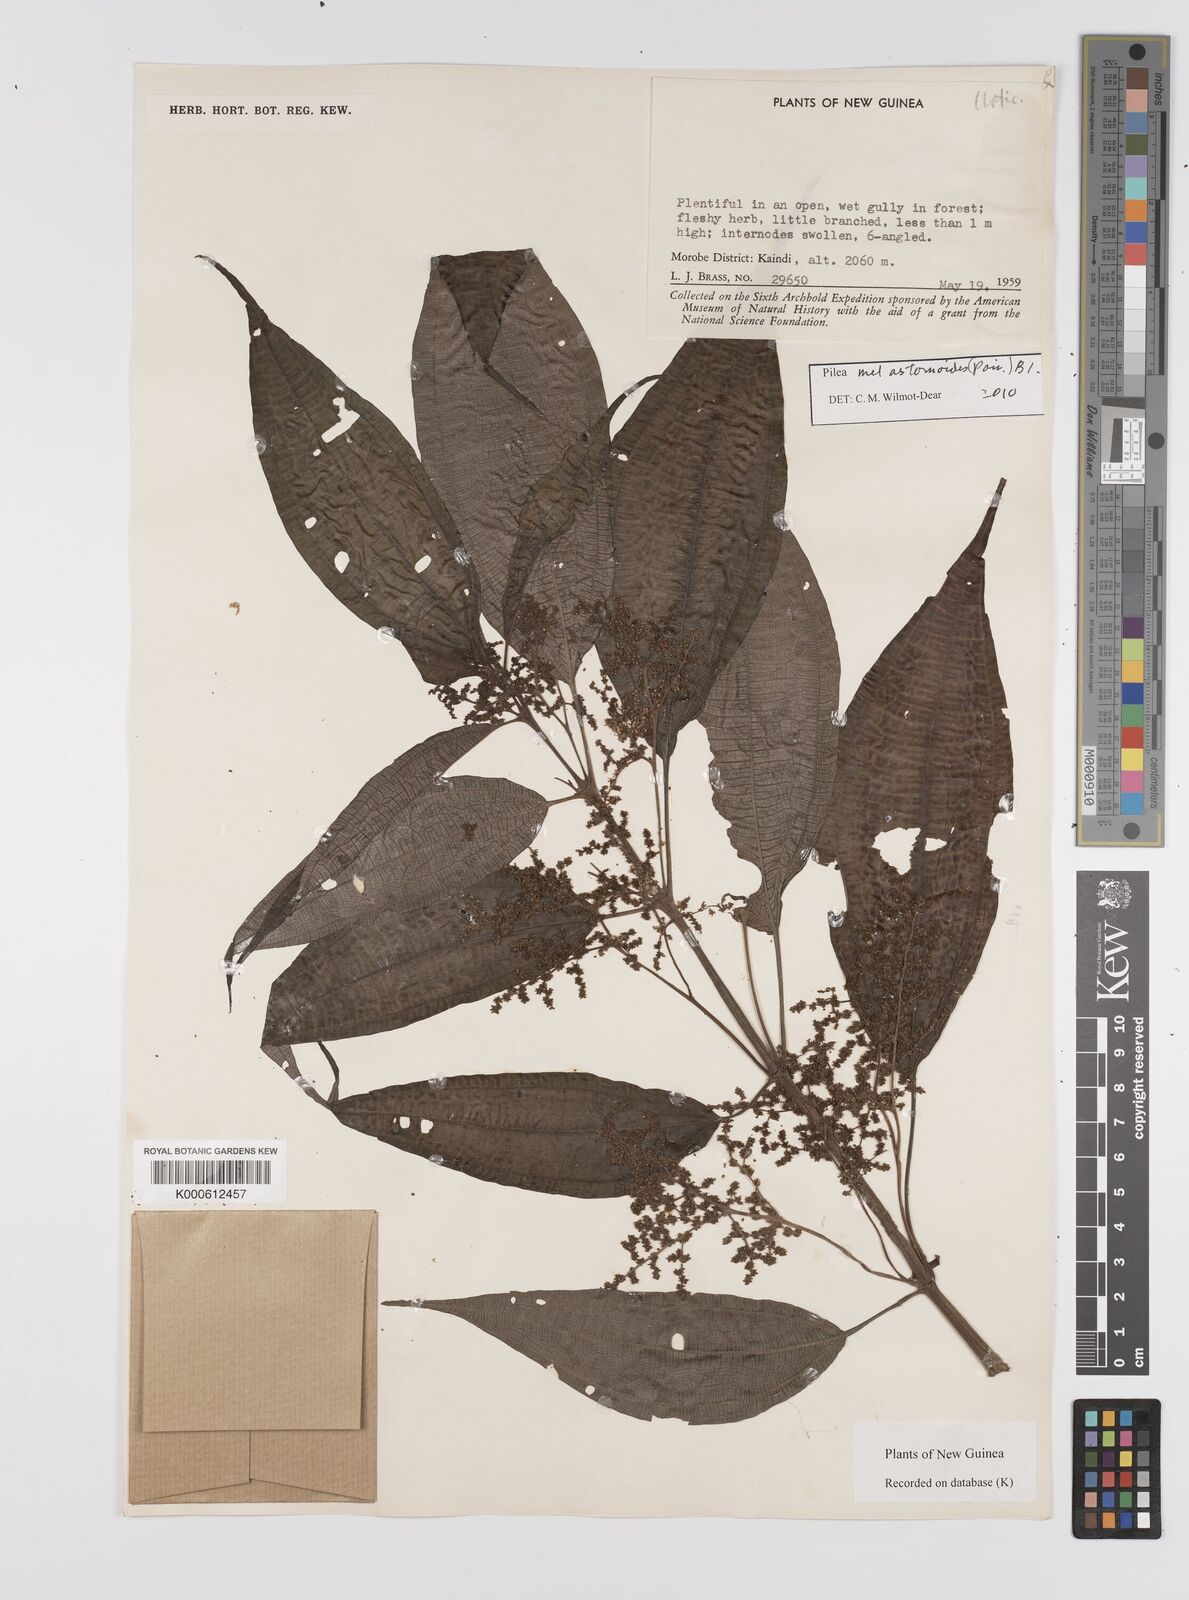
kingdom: Plantae
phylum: Tracheophyta
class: Magnoliopsida
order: Rosales
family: Urticaceae
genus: Pilea
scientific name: Pilea
